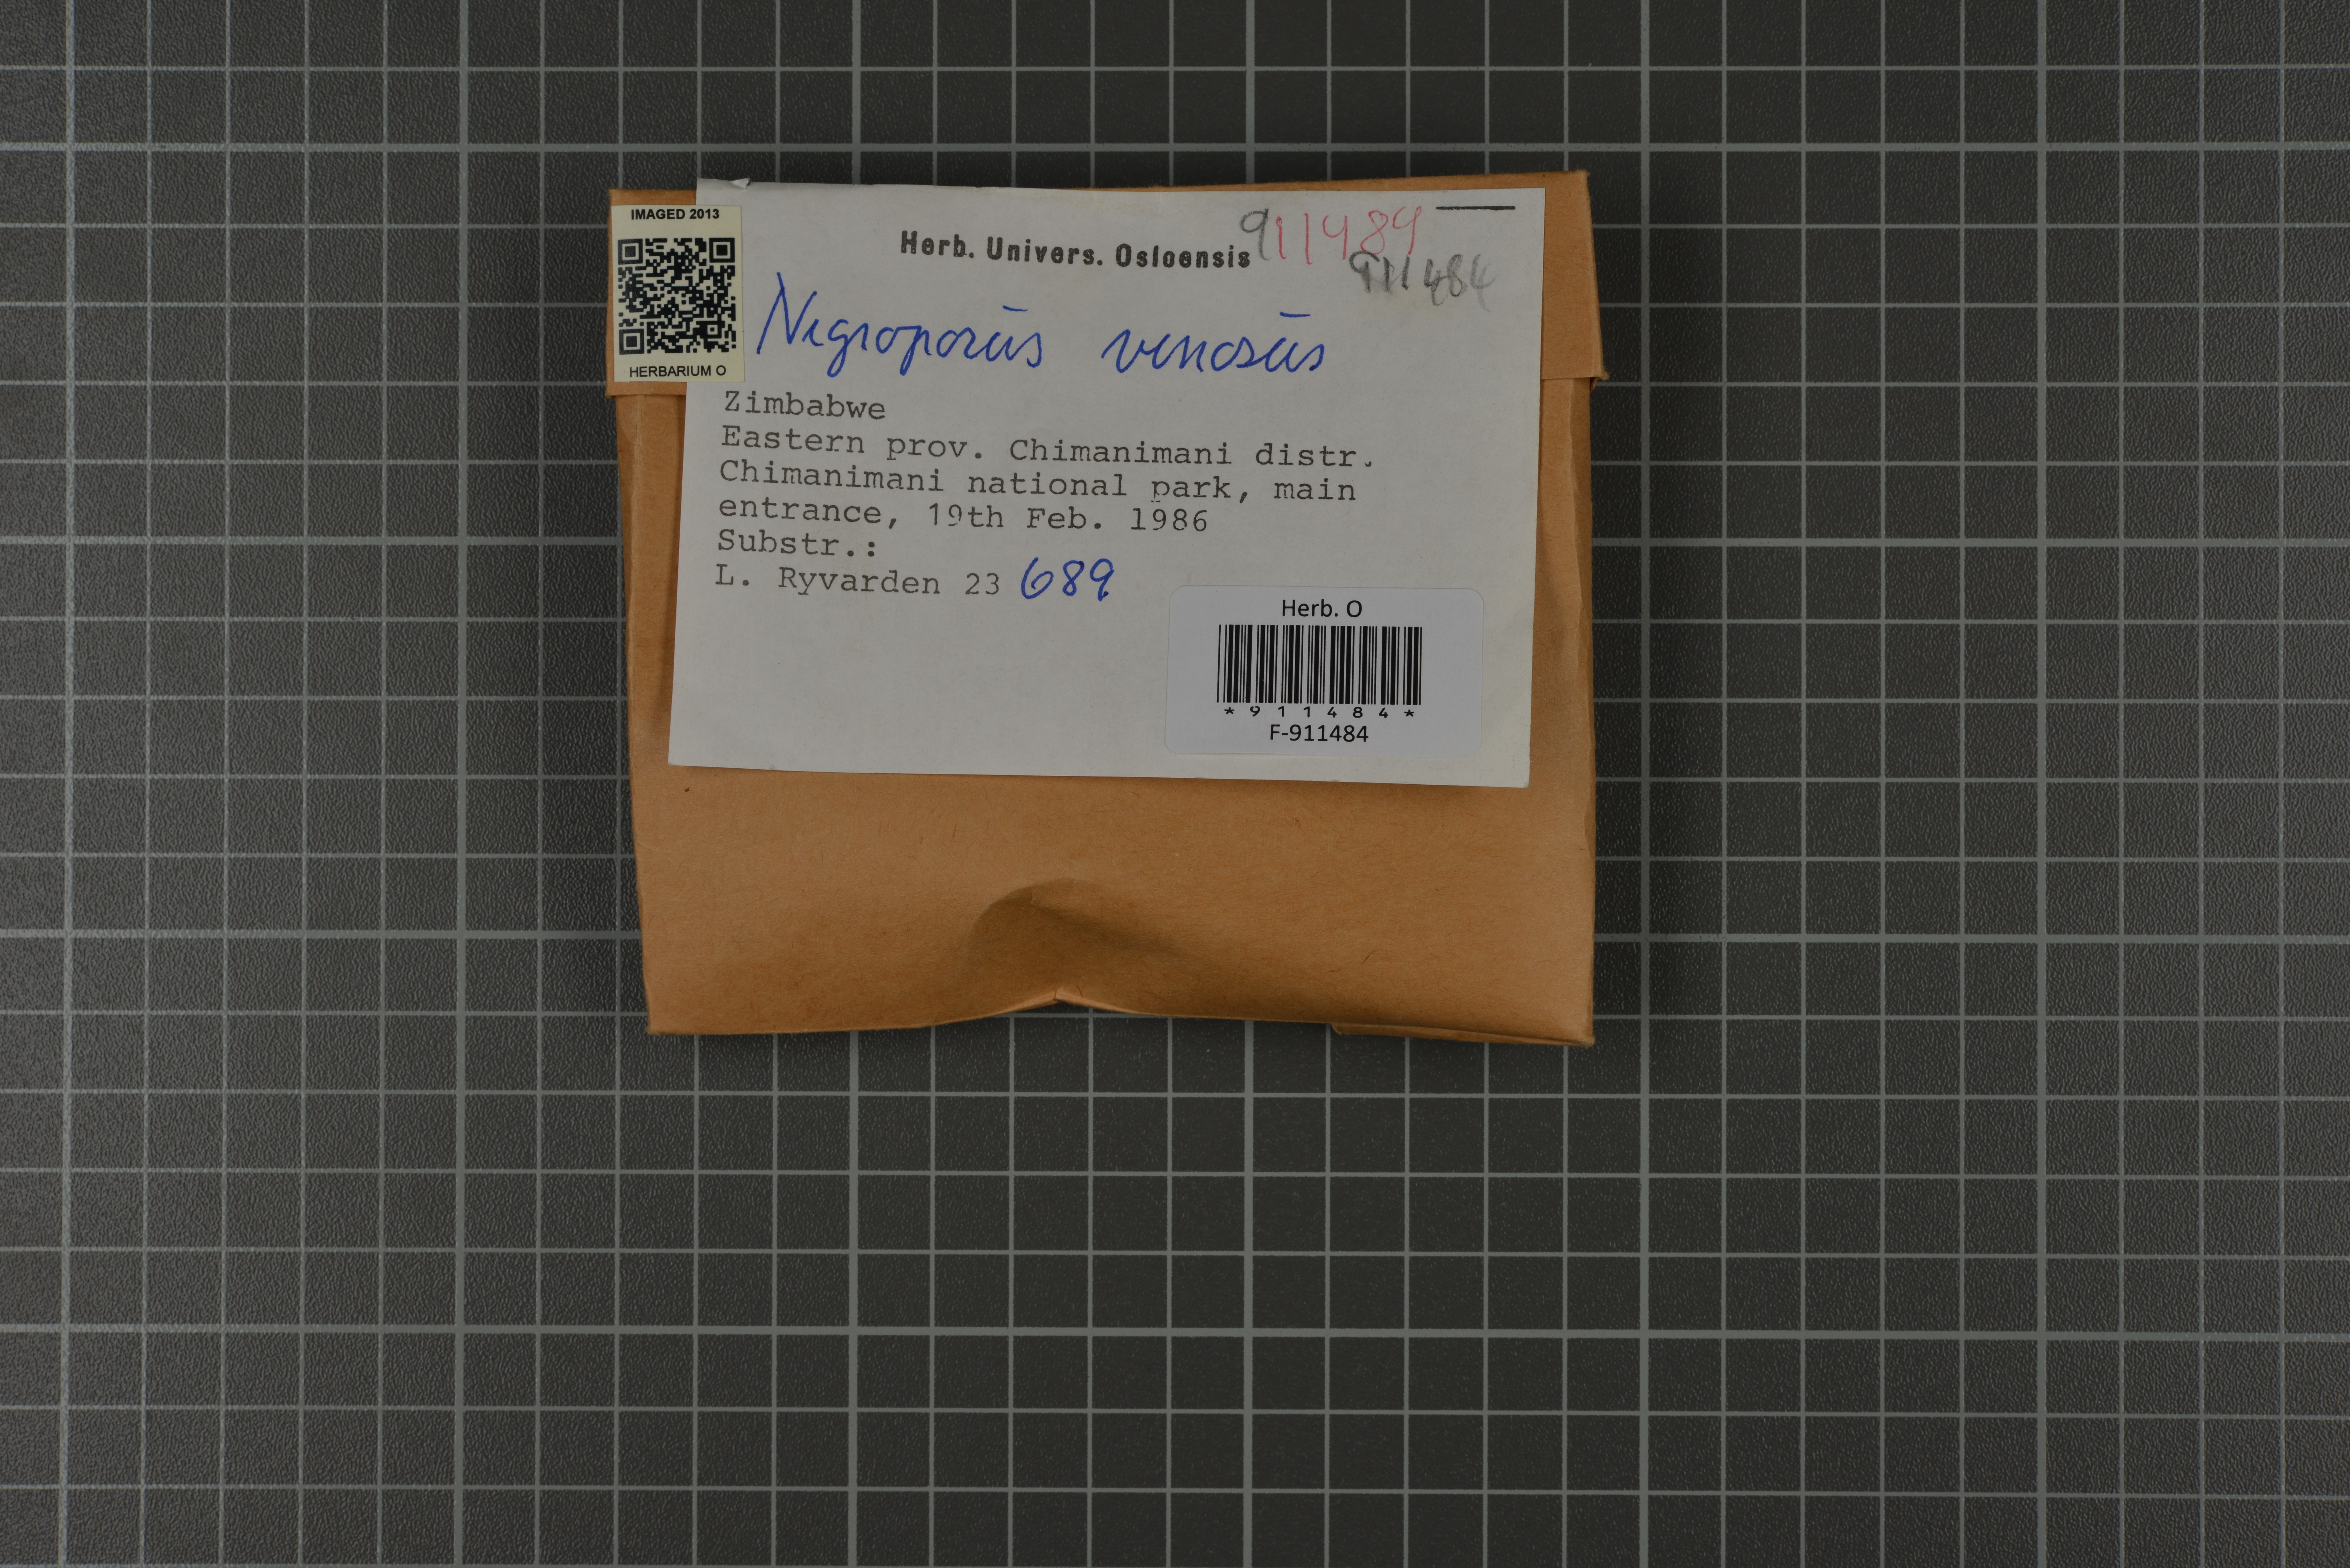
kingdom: Fungi
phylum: Basidiomycota
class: Agaricomycetes
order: Polyporales
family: Steccherinaceae
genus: Nigroporus
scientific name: Nigroporus vinosus
